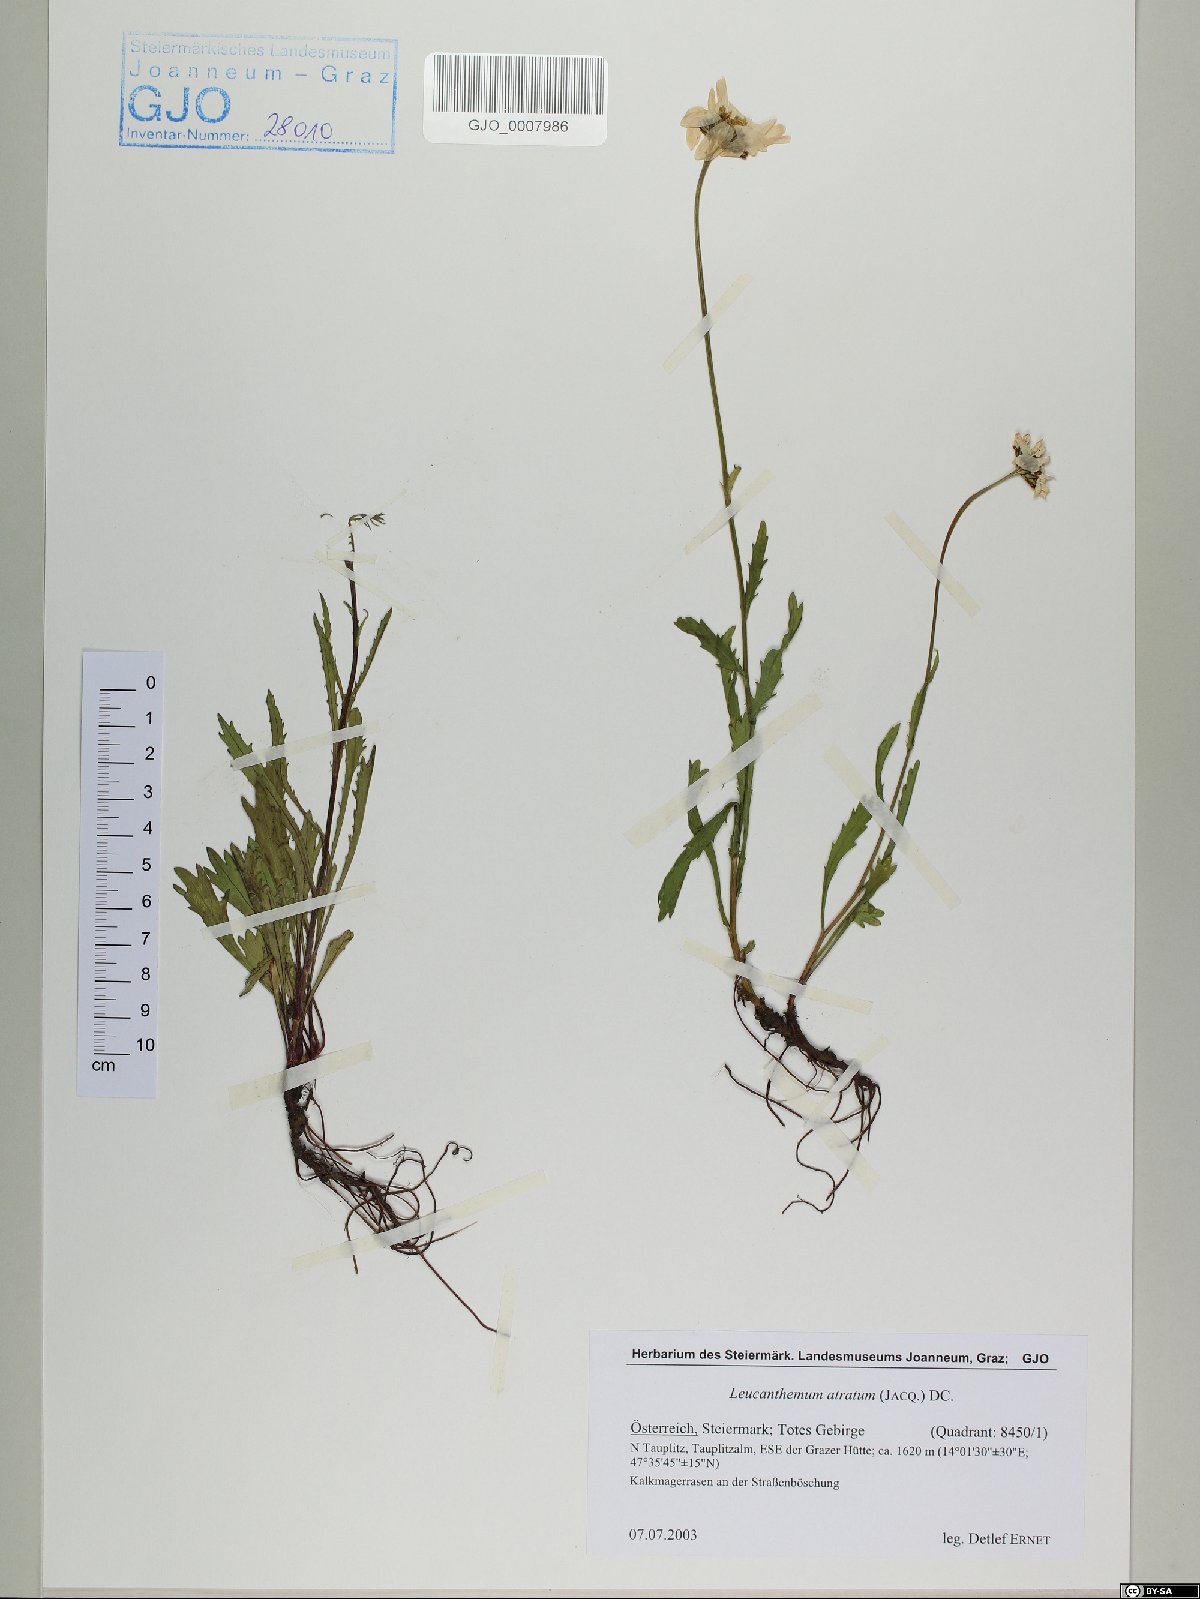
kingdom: Plantae
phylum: Tracheophyta
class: Magnoliopsida
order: Asterales
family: Asteraceae
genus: Leucanthemum
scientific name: Leucanthemum atratum
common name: Saw-leaved moon-daisy
